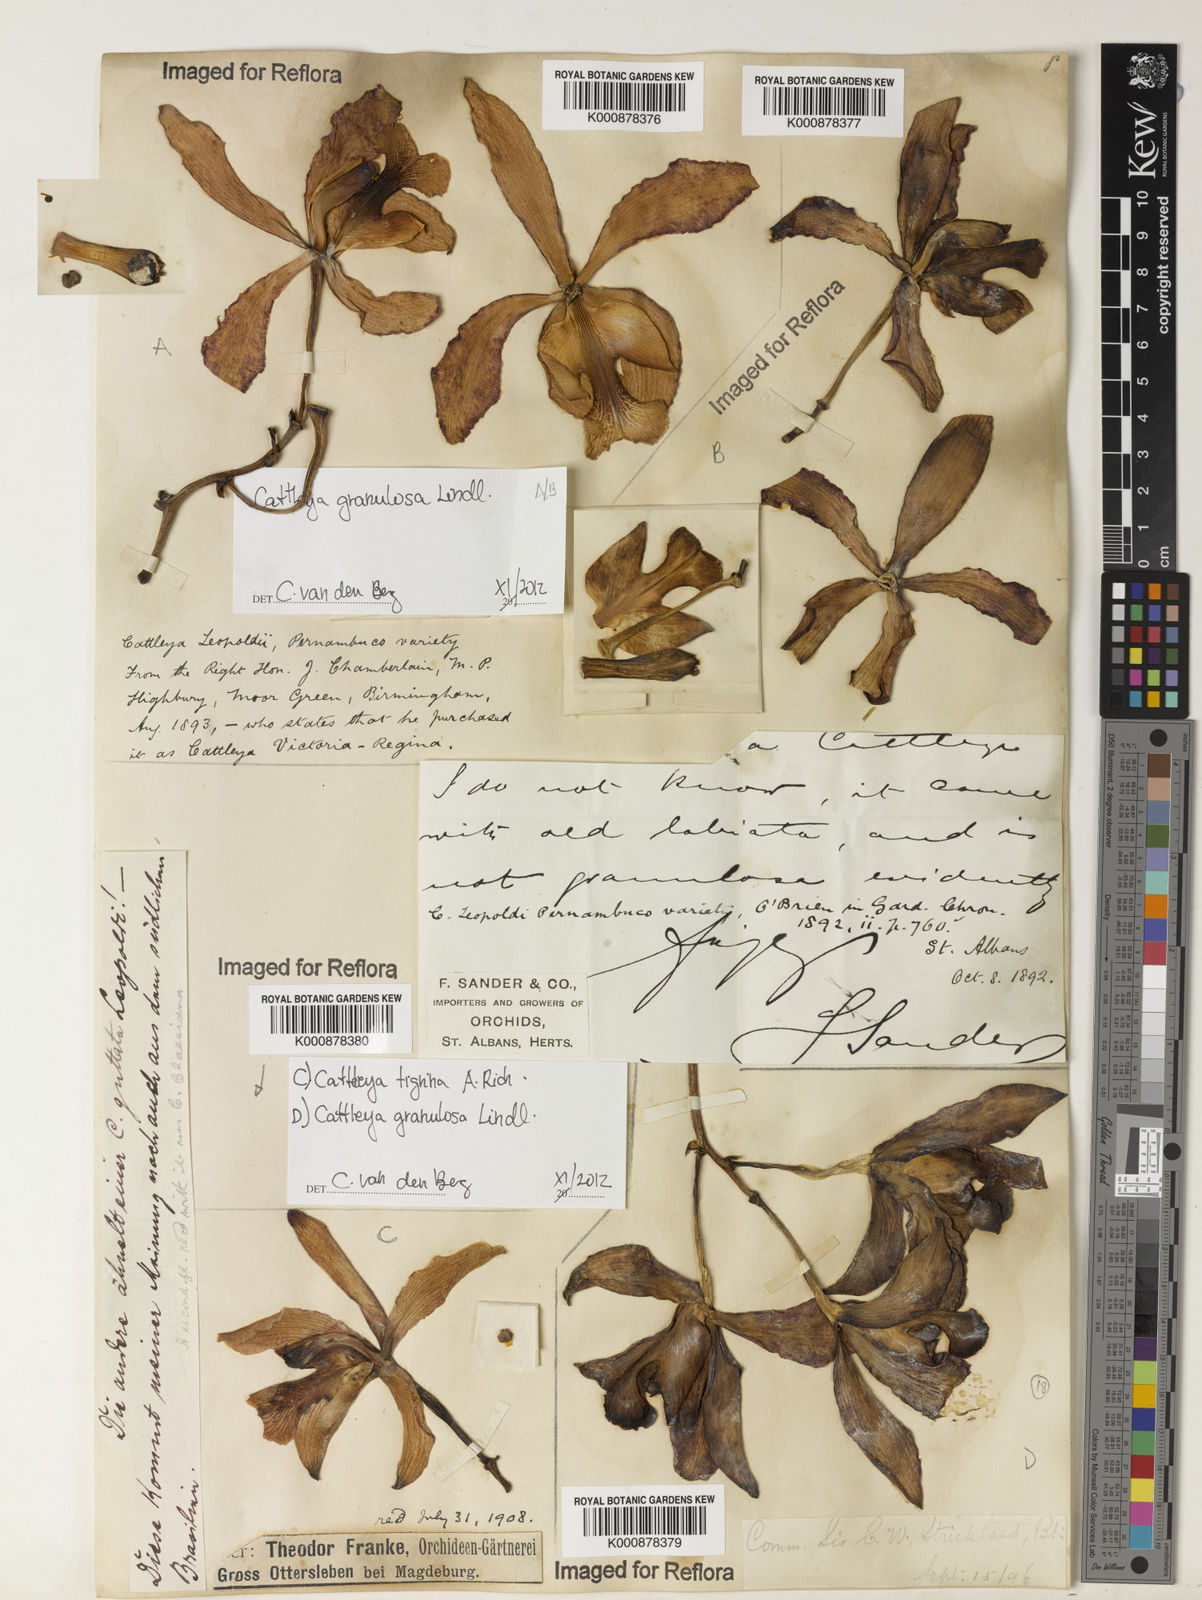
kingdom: Plantae
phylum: Tracheophyta
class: Liliopsida
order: Asparagales
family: Orchidaceae
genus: Cattleya
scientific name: Cattleya granulosa
